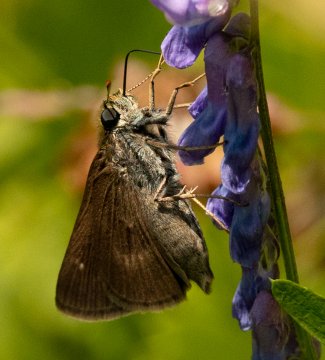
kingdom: Animalia
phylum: Arthropoda
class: Insecta
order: Lepidoptera
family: Hesperiidae
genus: Euphyes
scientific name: Euphyes vestris
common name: Dun Skipper
